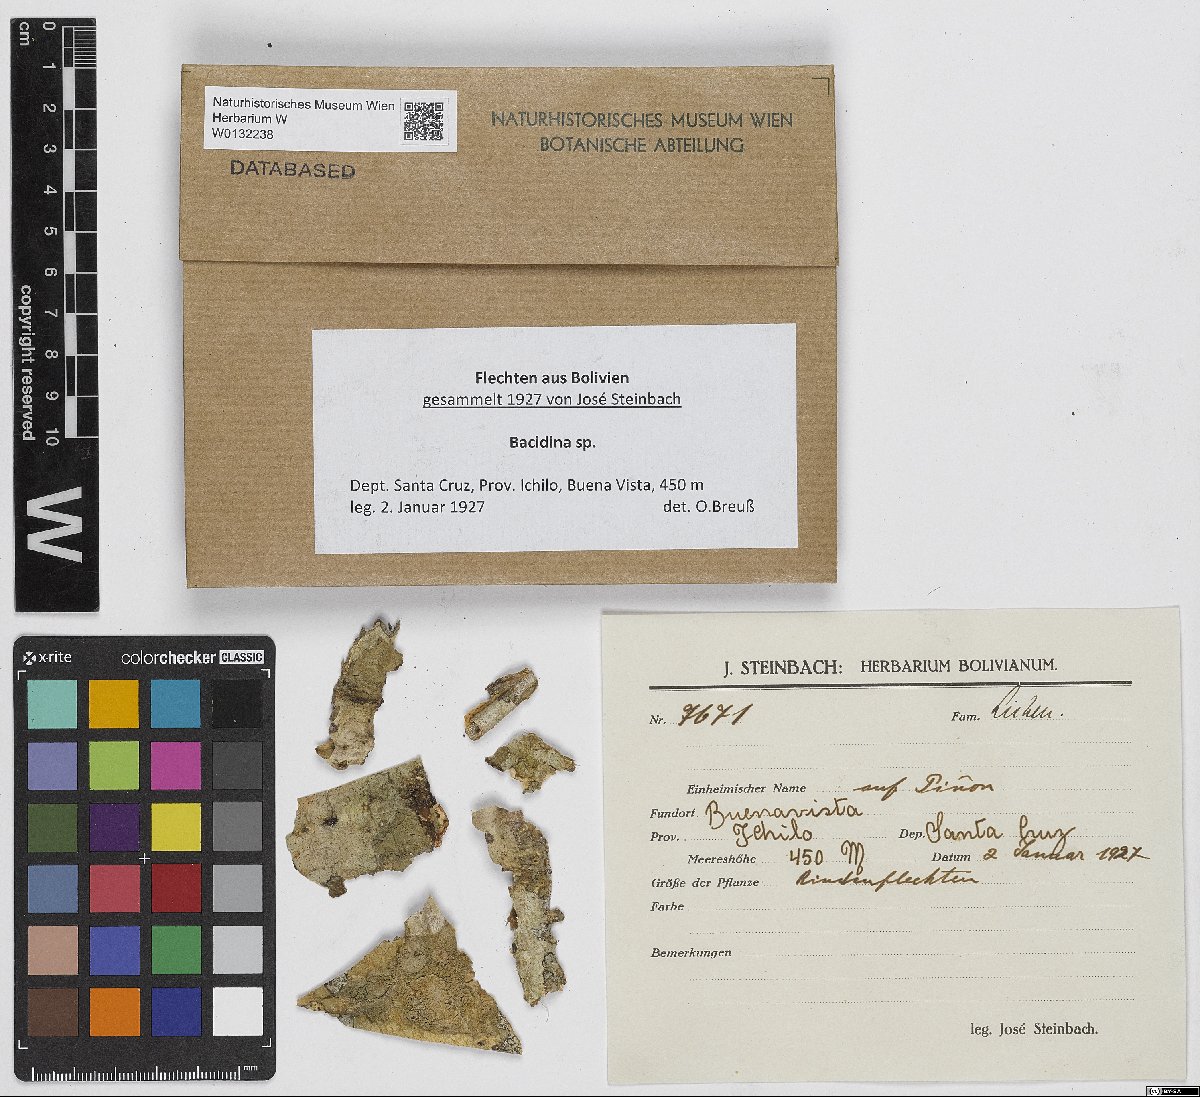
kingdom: Fungi
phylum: Ascomycota
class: Lecanoromycetes
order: Lecanorales
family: Ramalinaceae
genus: Bacidina
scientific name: Bacidina
